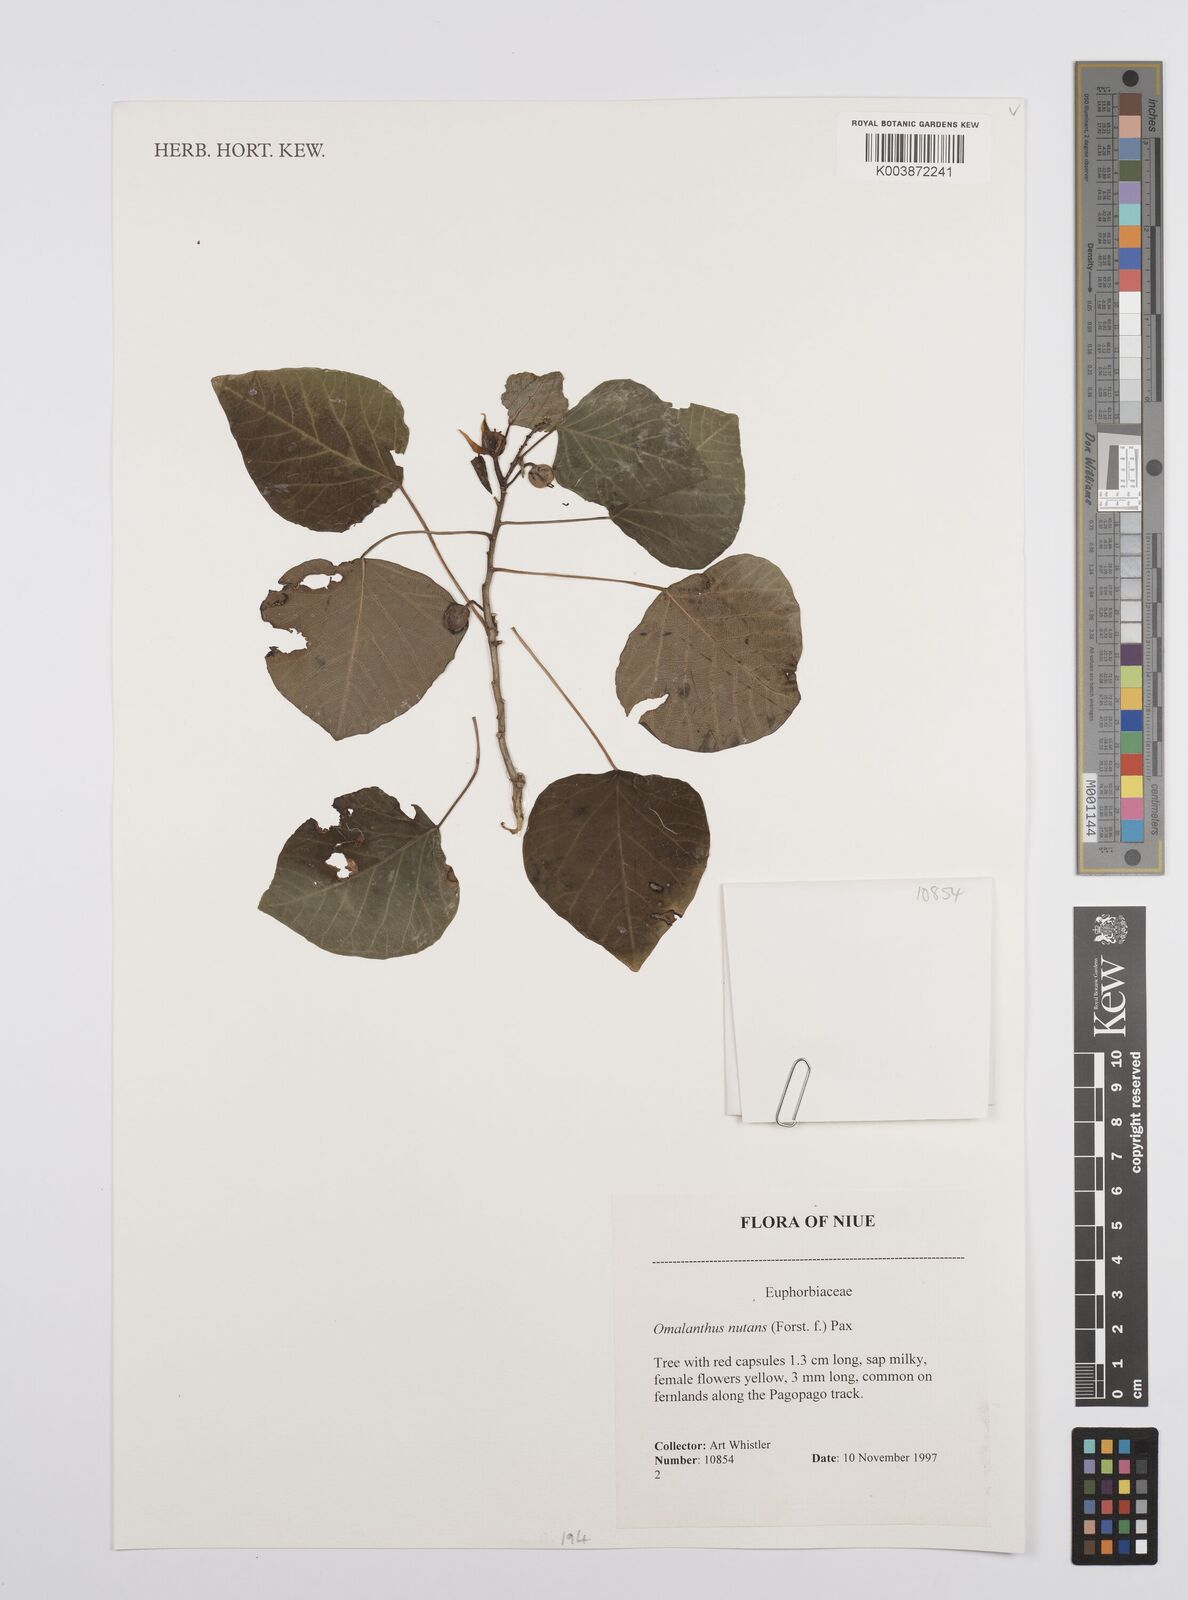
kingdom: Plantae
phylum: Tracheophyta
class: Magnoliopsida
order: Malpighiales
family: Euphorbiaceae
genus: Homalanthus
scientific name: Homalanthus nutans
